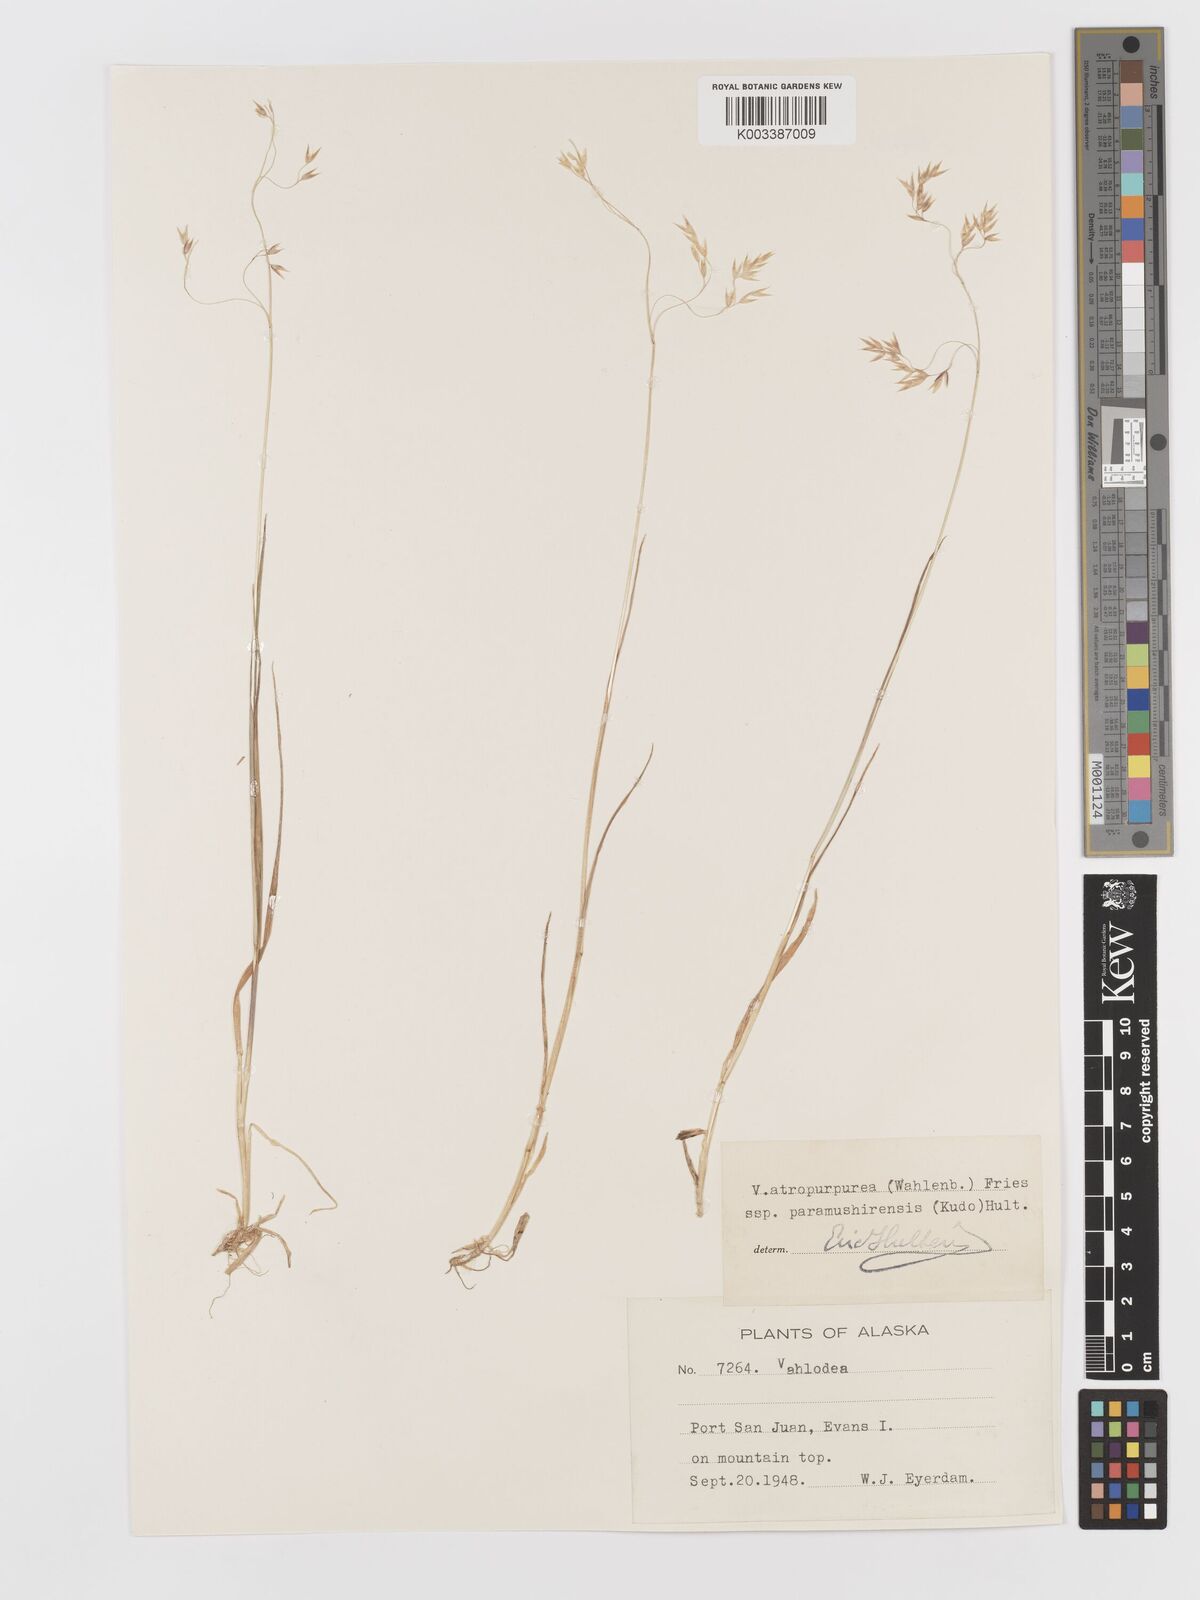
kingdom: Plantae
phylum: Tracheophyta
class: Liliopsida
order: Poales
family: Poaceae
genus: Vahlodea
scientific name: Vahlodea atropurpurea
